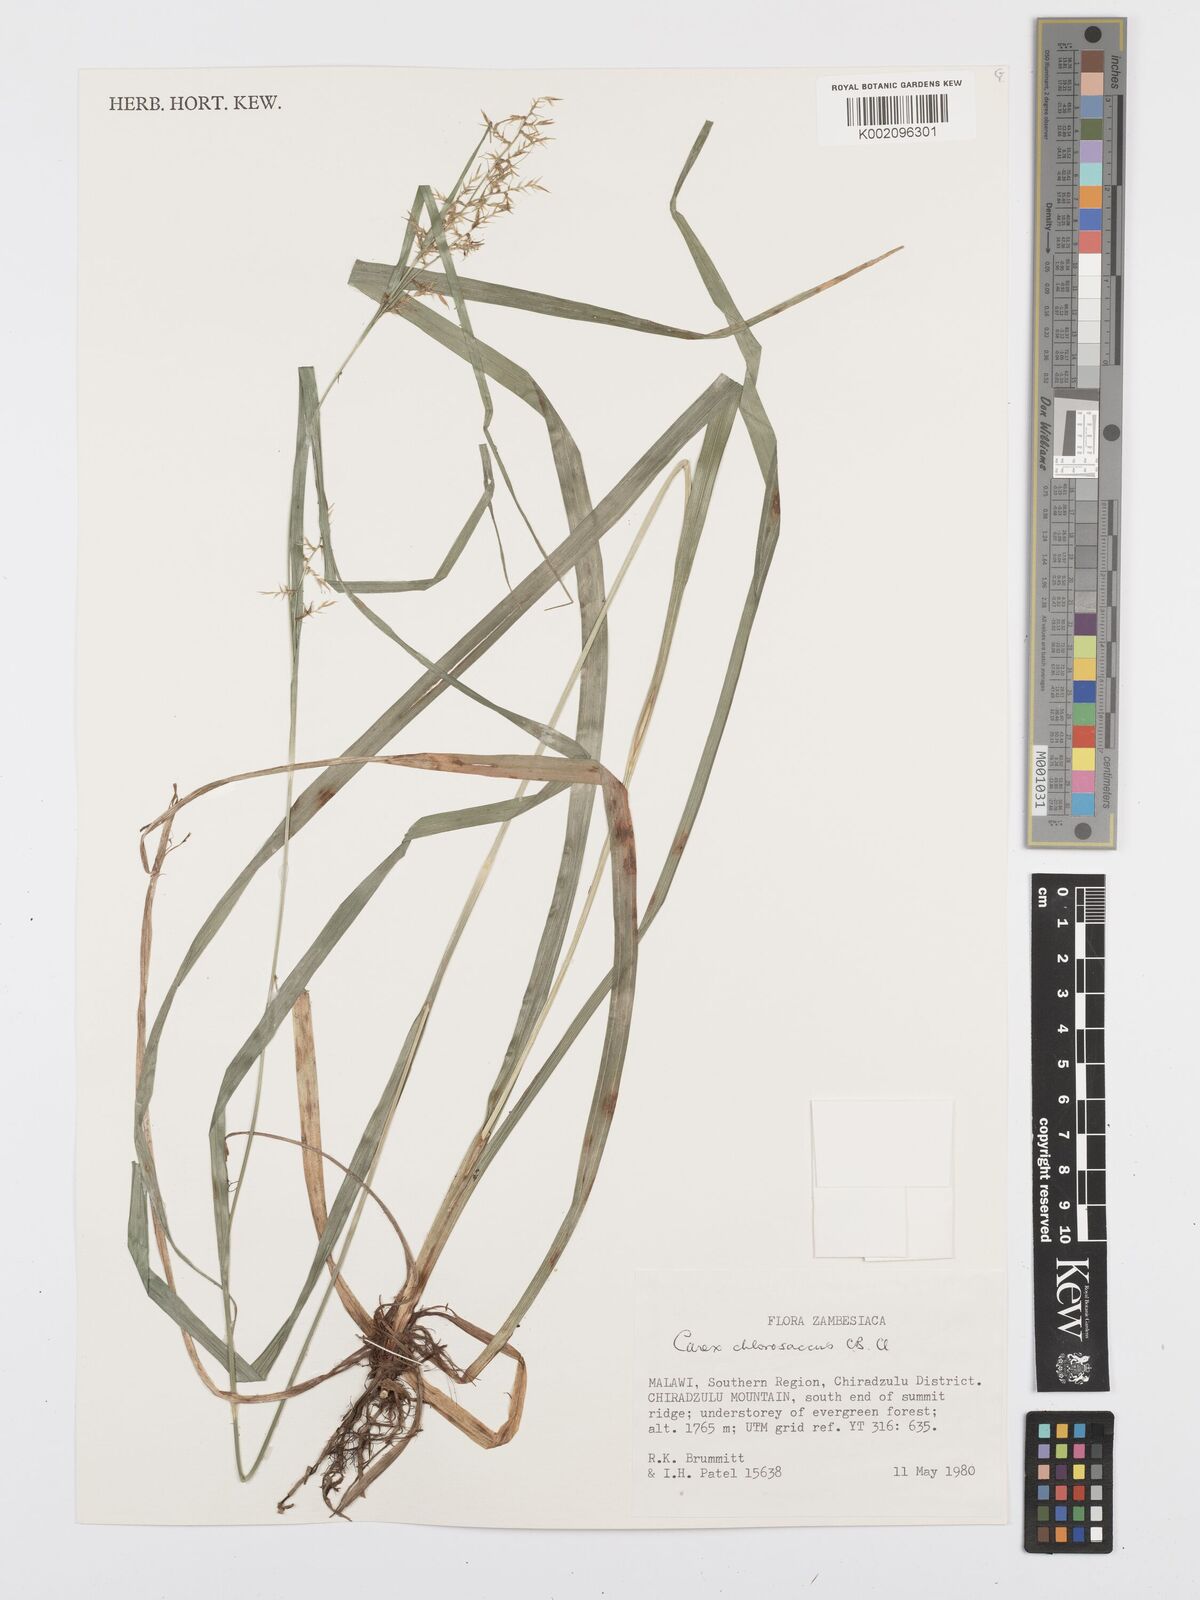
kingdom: Plantae
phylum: Tracheophyta
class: Liliopsida
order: Poales
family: Cyperaceae
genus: Carex
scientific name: Carex chlorosaccus
